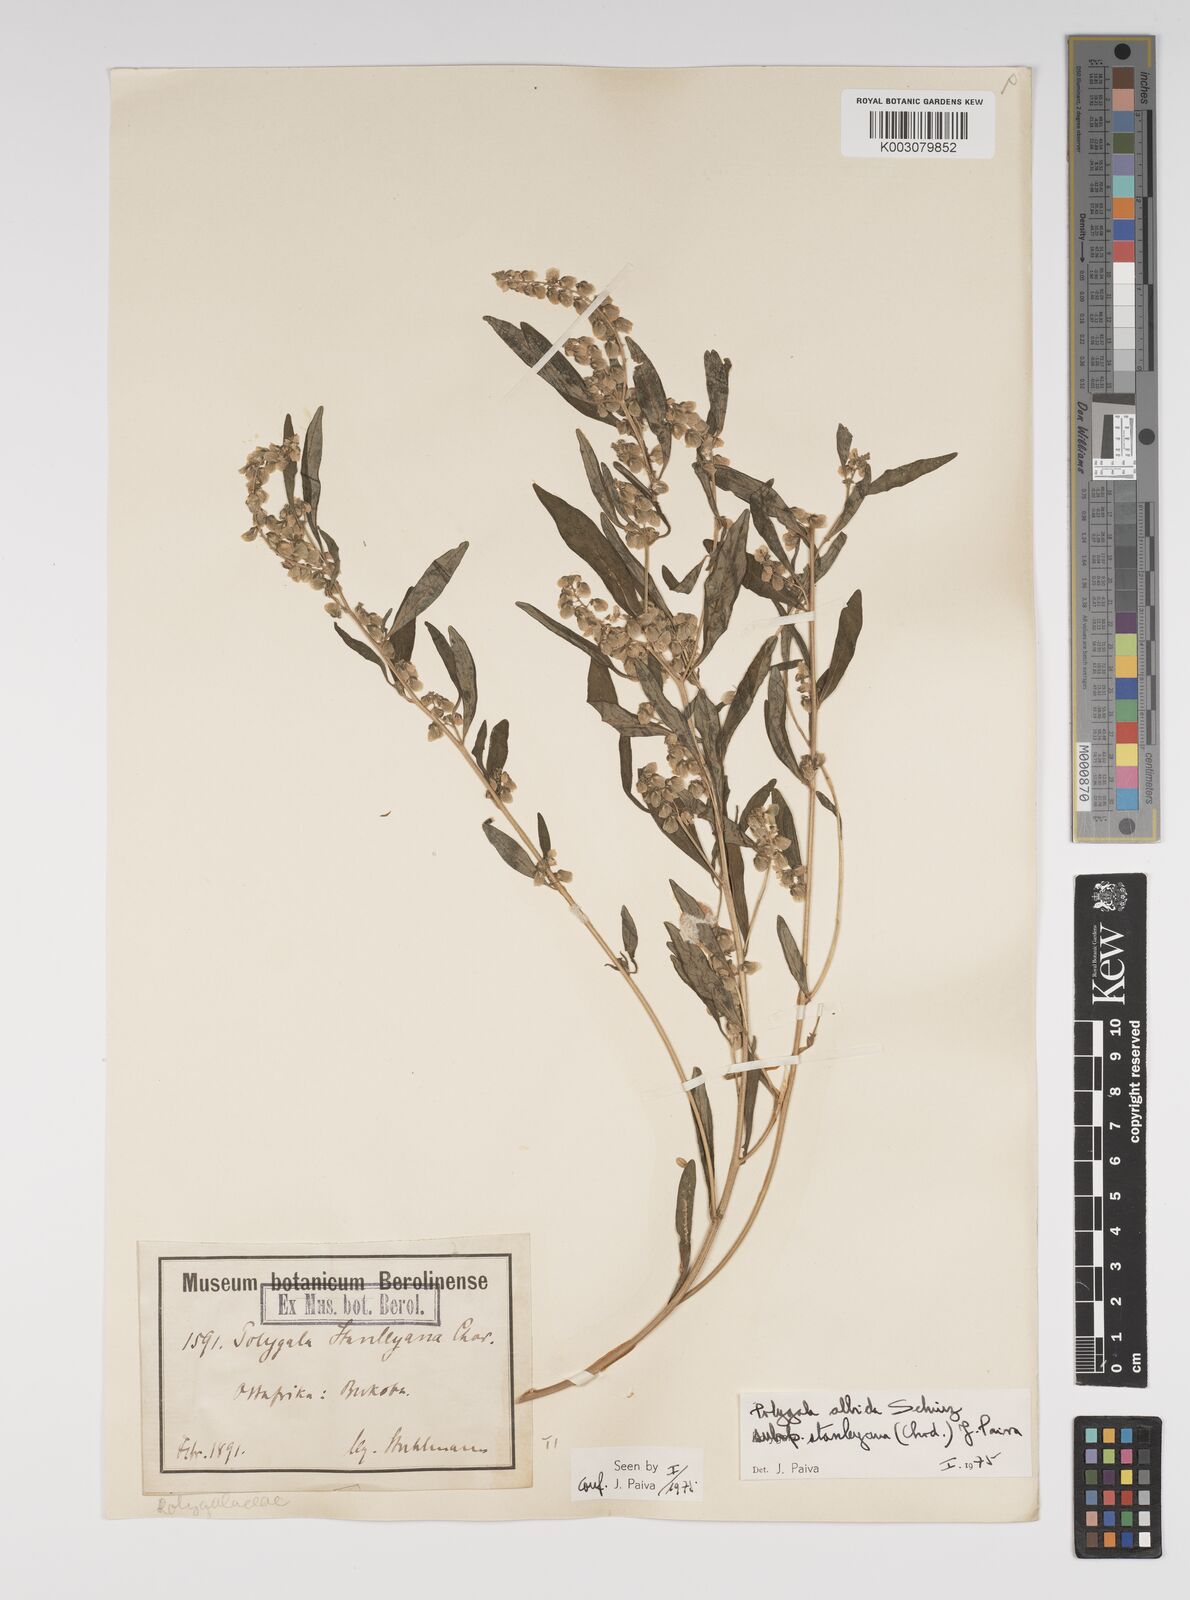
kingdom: Plantae
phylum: Tracheophyta
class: Magnoliopsida
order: Fabales
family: Polygalaceae
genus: Polygala
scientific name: Polygala albida
